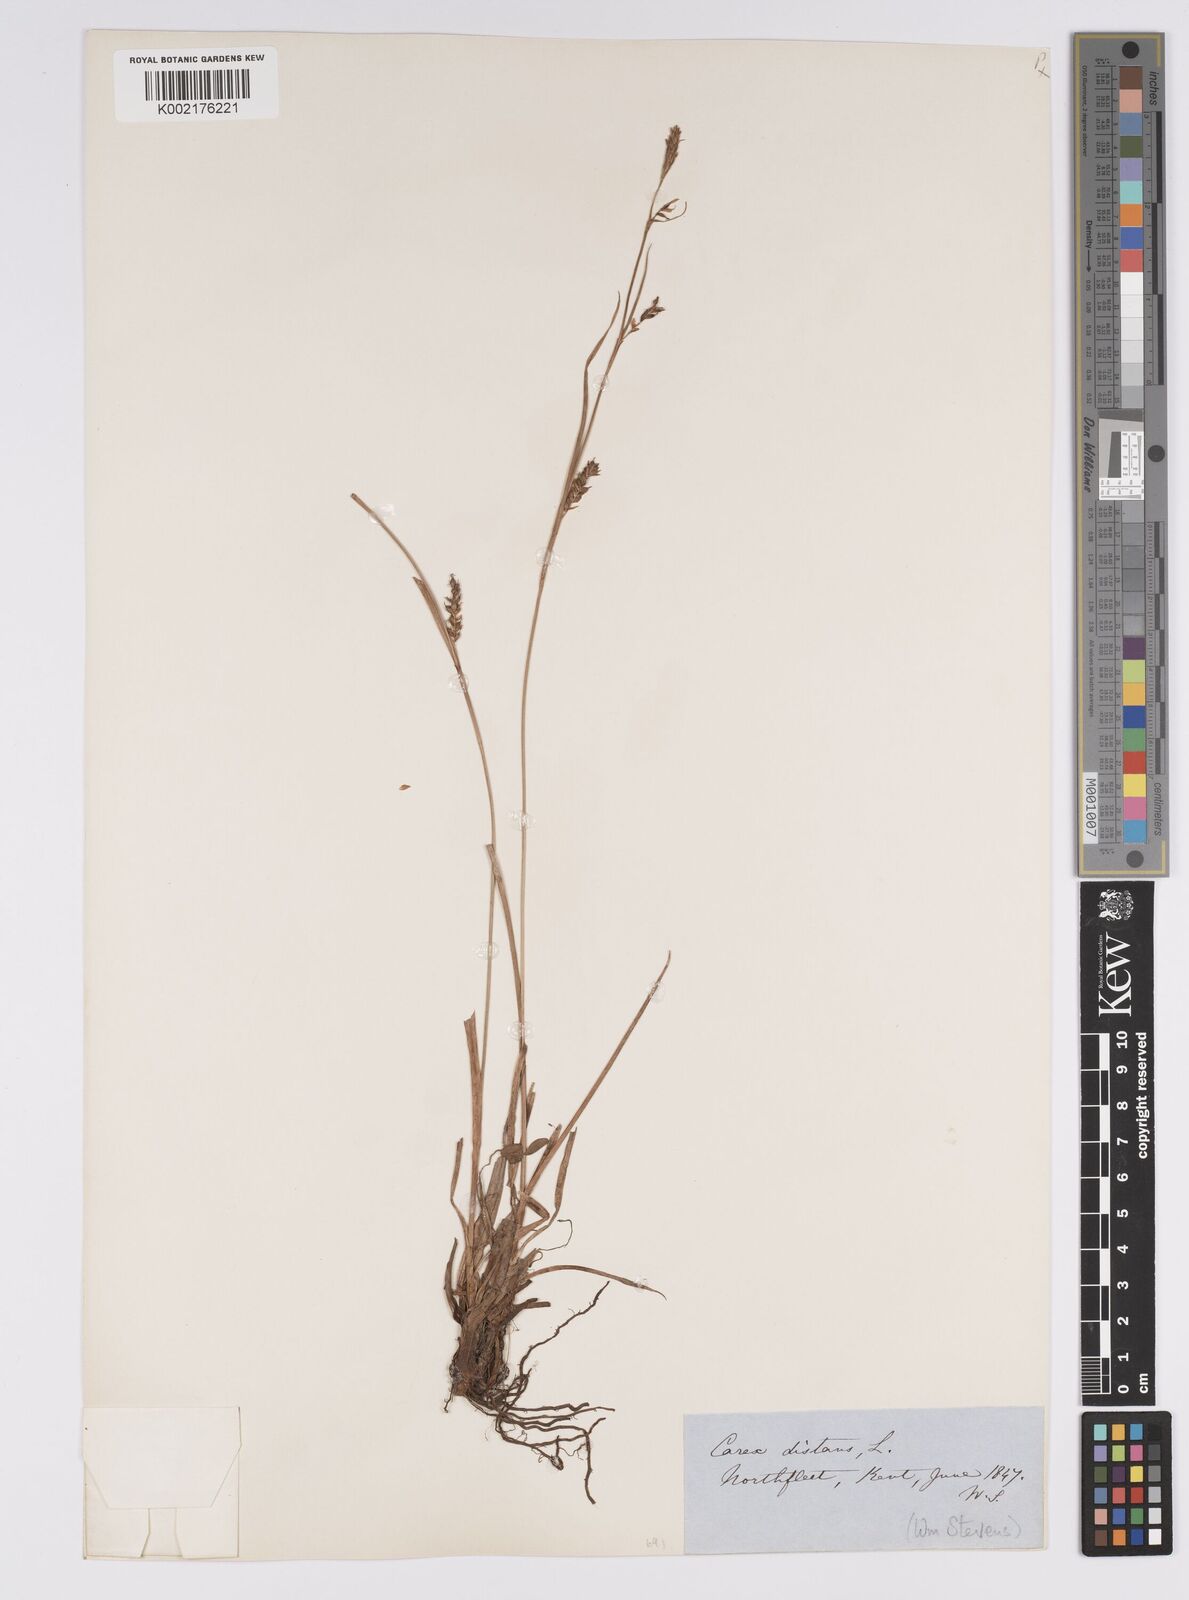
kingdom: Plantae
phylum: Tracheophyta
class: Liliopsida
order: Poales
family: Cyperaceae
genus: Carex
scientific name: Carex distans
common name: Distant sedge
